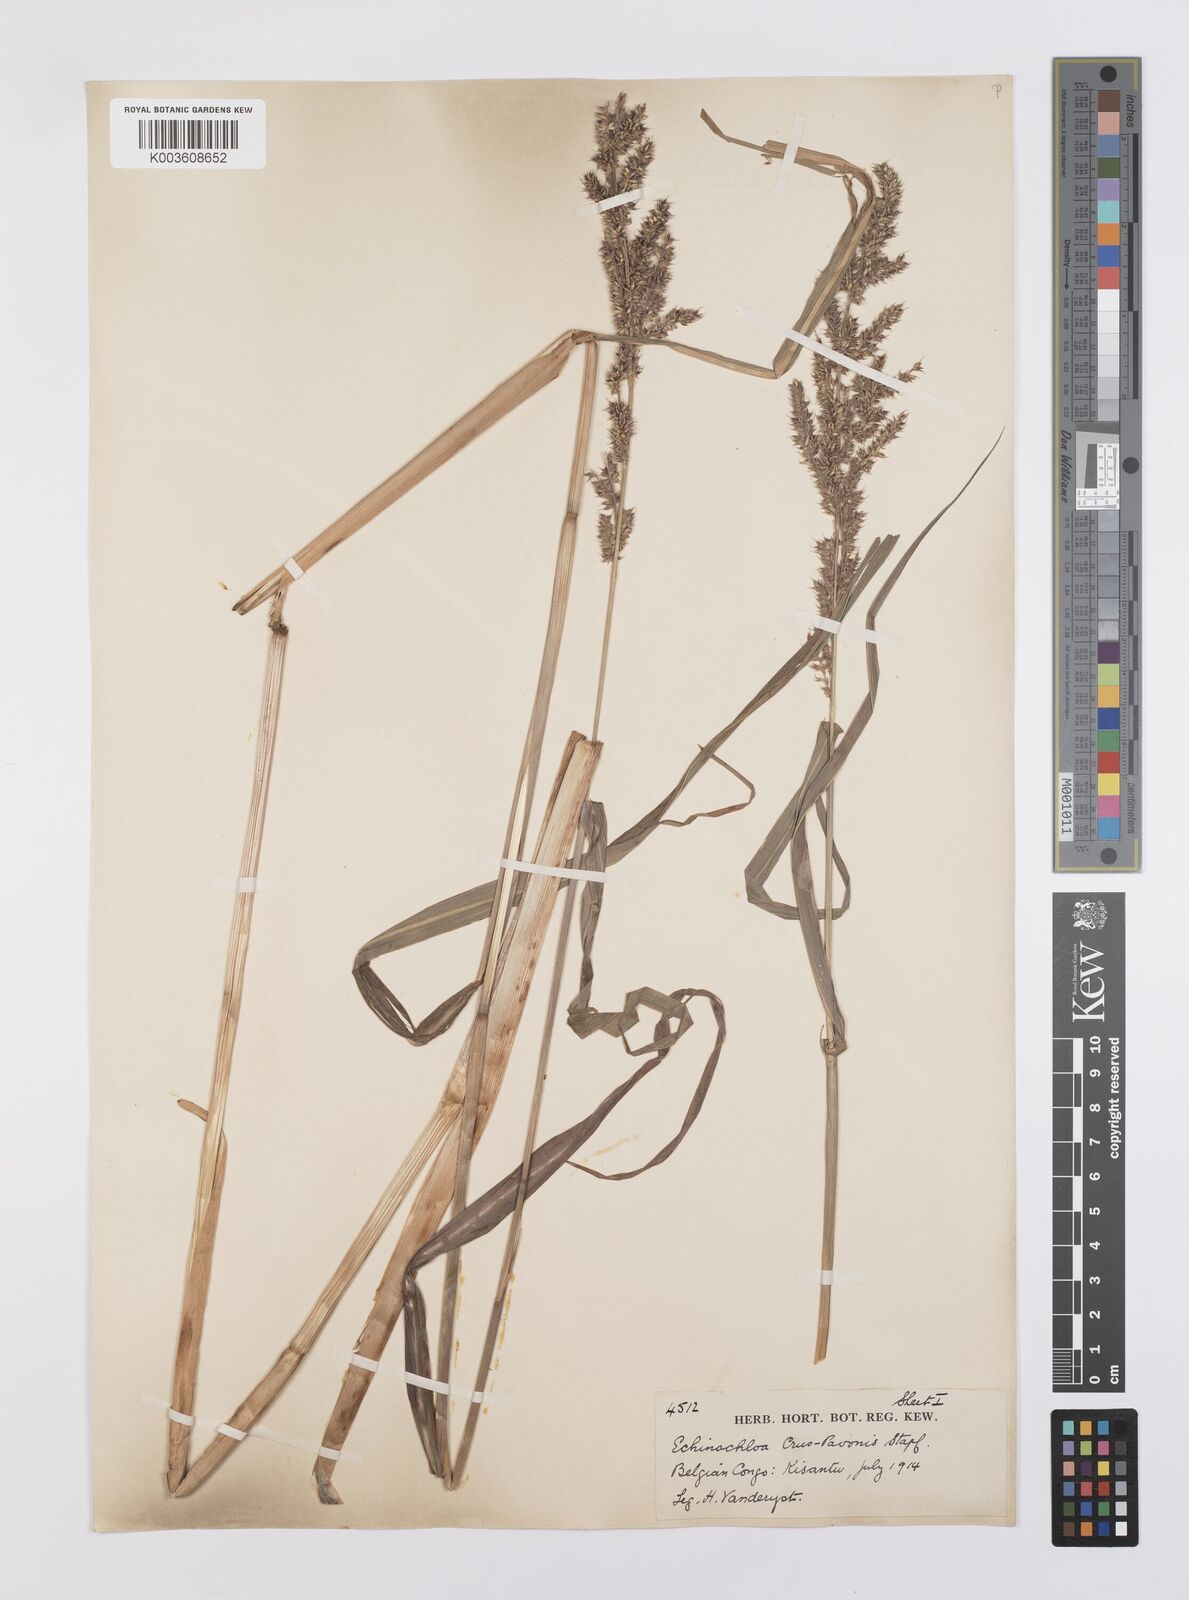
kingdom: Plantae
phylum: Tracheophyta
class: Liliopsida
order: Poales
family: Poaceae
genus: Echinochloa
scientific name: Echinochloa crus-pavonis
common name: Gulf cockspur grass
